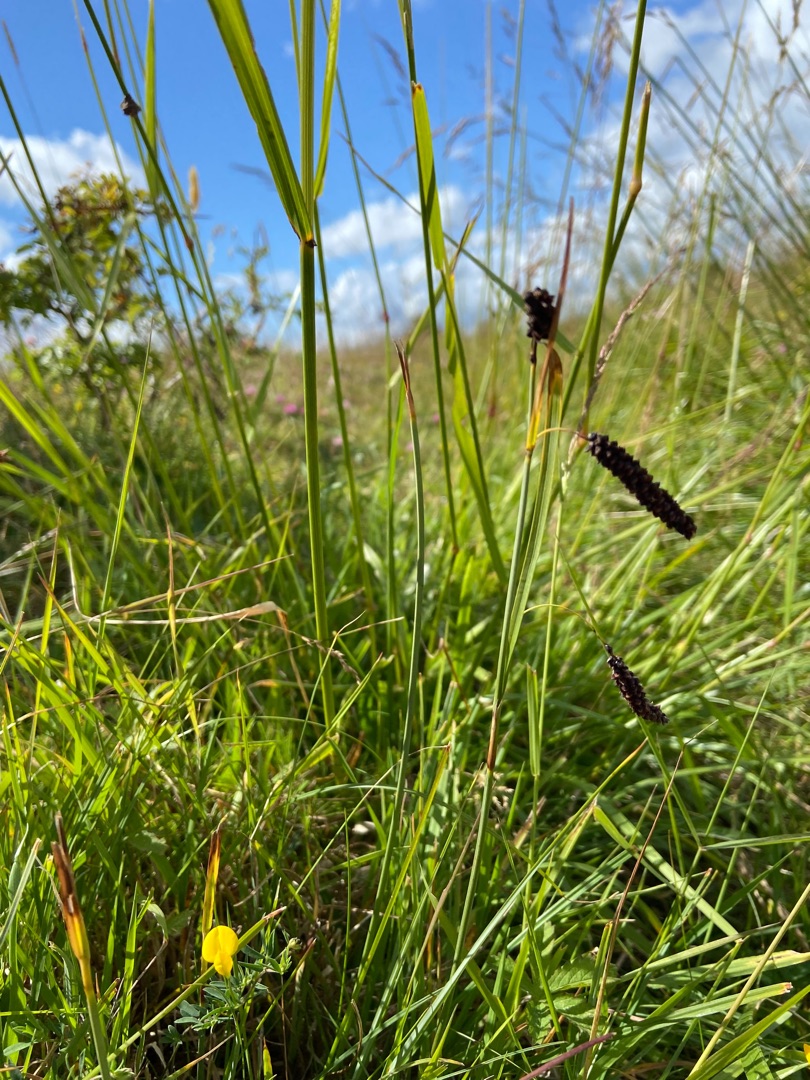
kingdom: Plantae
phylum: Tracheophyta
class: Liliopsida
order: Poales
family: Cyperaceae
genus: Carex
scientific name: Carex flacca
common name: Blågrøn star
